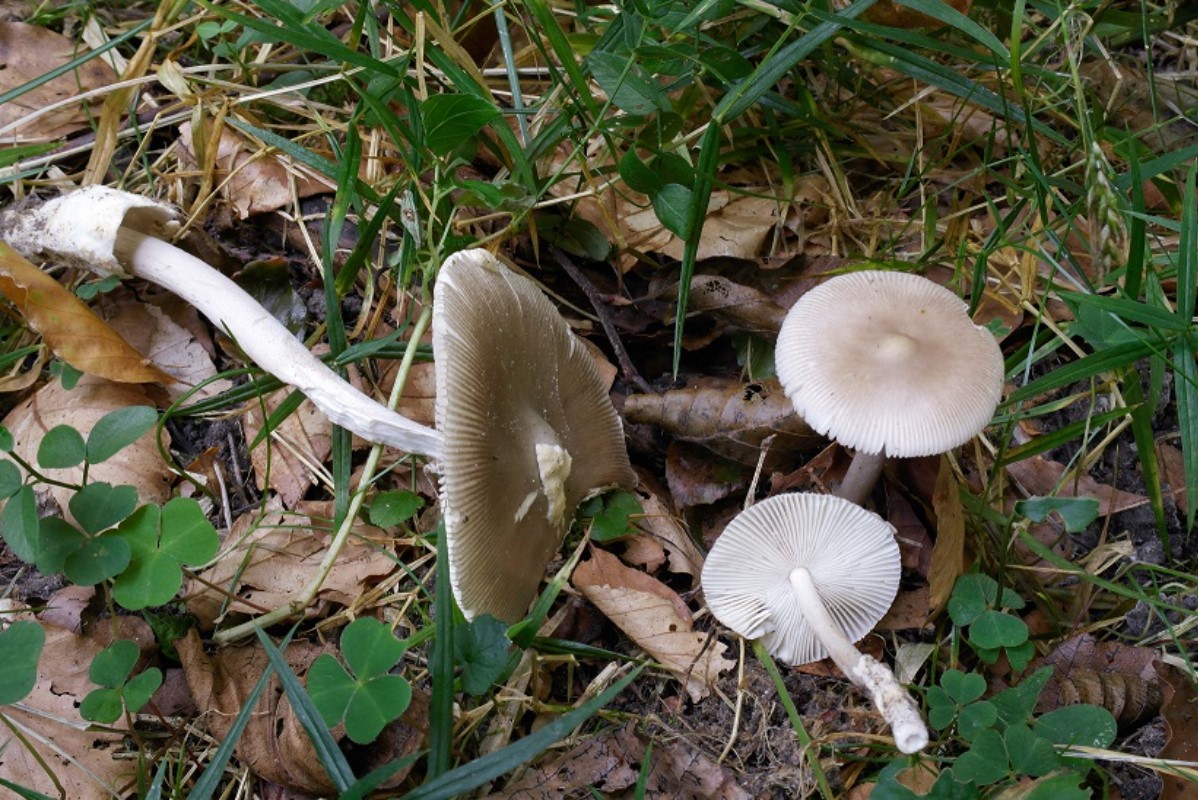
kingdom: Fungi
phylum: Basidiomycota
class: Agaricomycetes
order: Agaricales
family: Amanitaceae
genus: Amanita
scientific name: Amanita vaginata
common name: grå kam-fluesvamp
